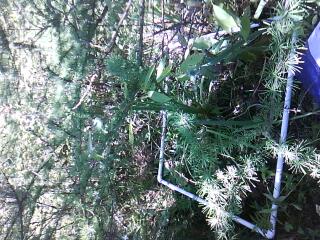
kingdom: Plantae
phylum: Tracheophyta
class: Magnoliopsida
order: Ericales
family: Primulaceae
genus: Lysimachia
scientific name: Lysimachia thyrsiflora
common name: Tufted loosestrife
